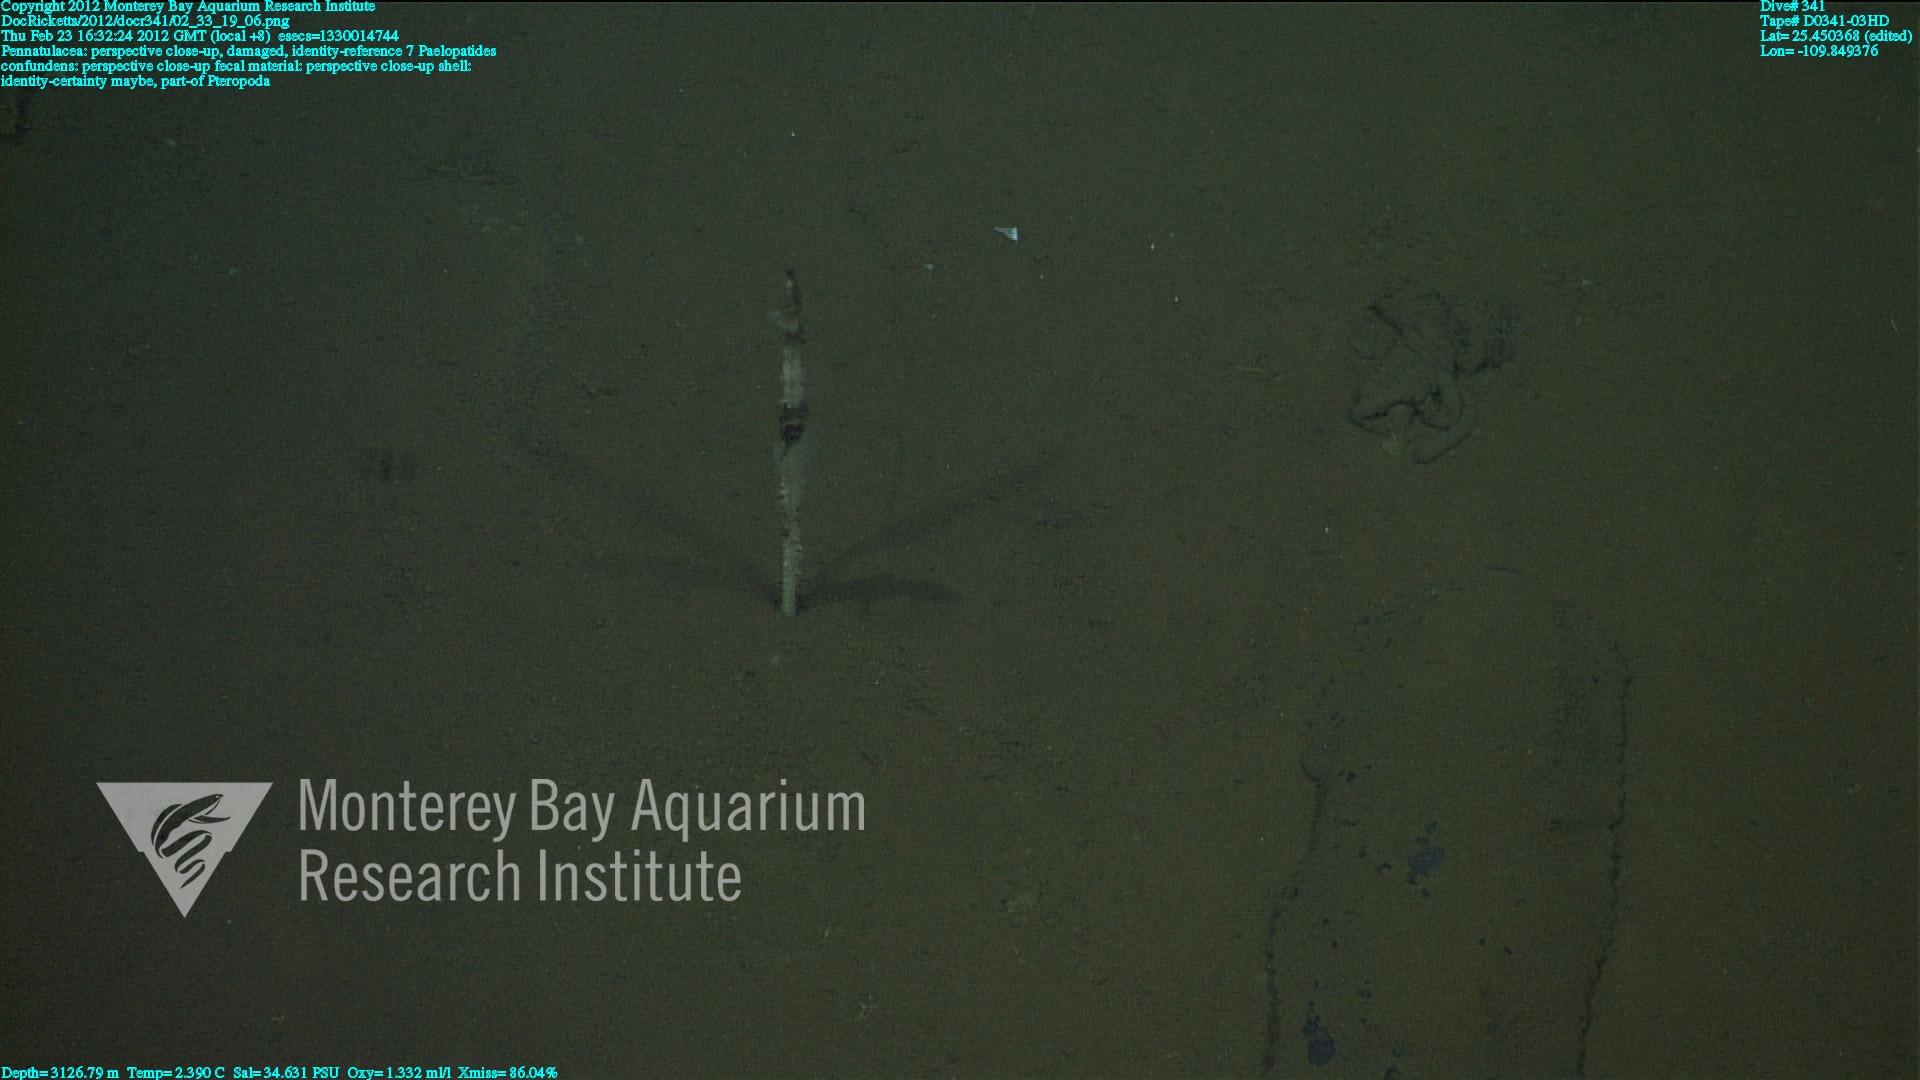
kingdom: Animalia
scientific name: Animalia
